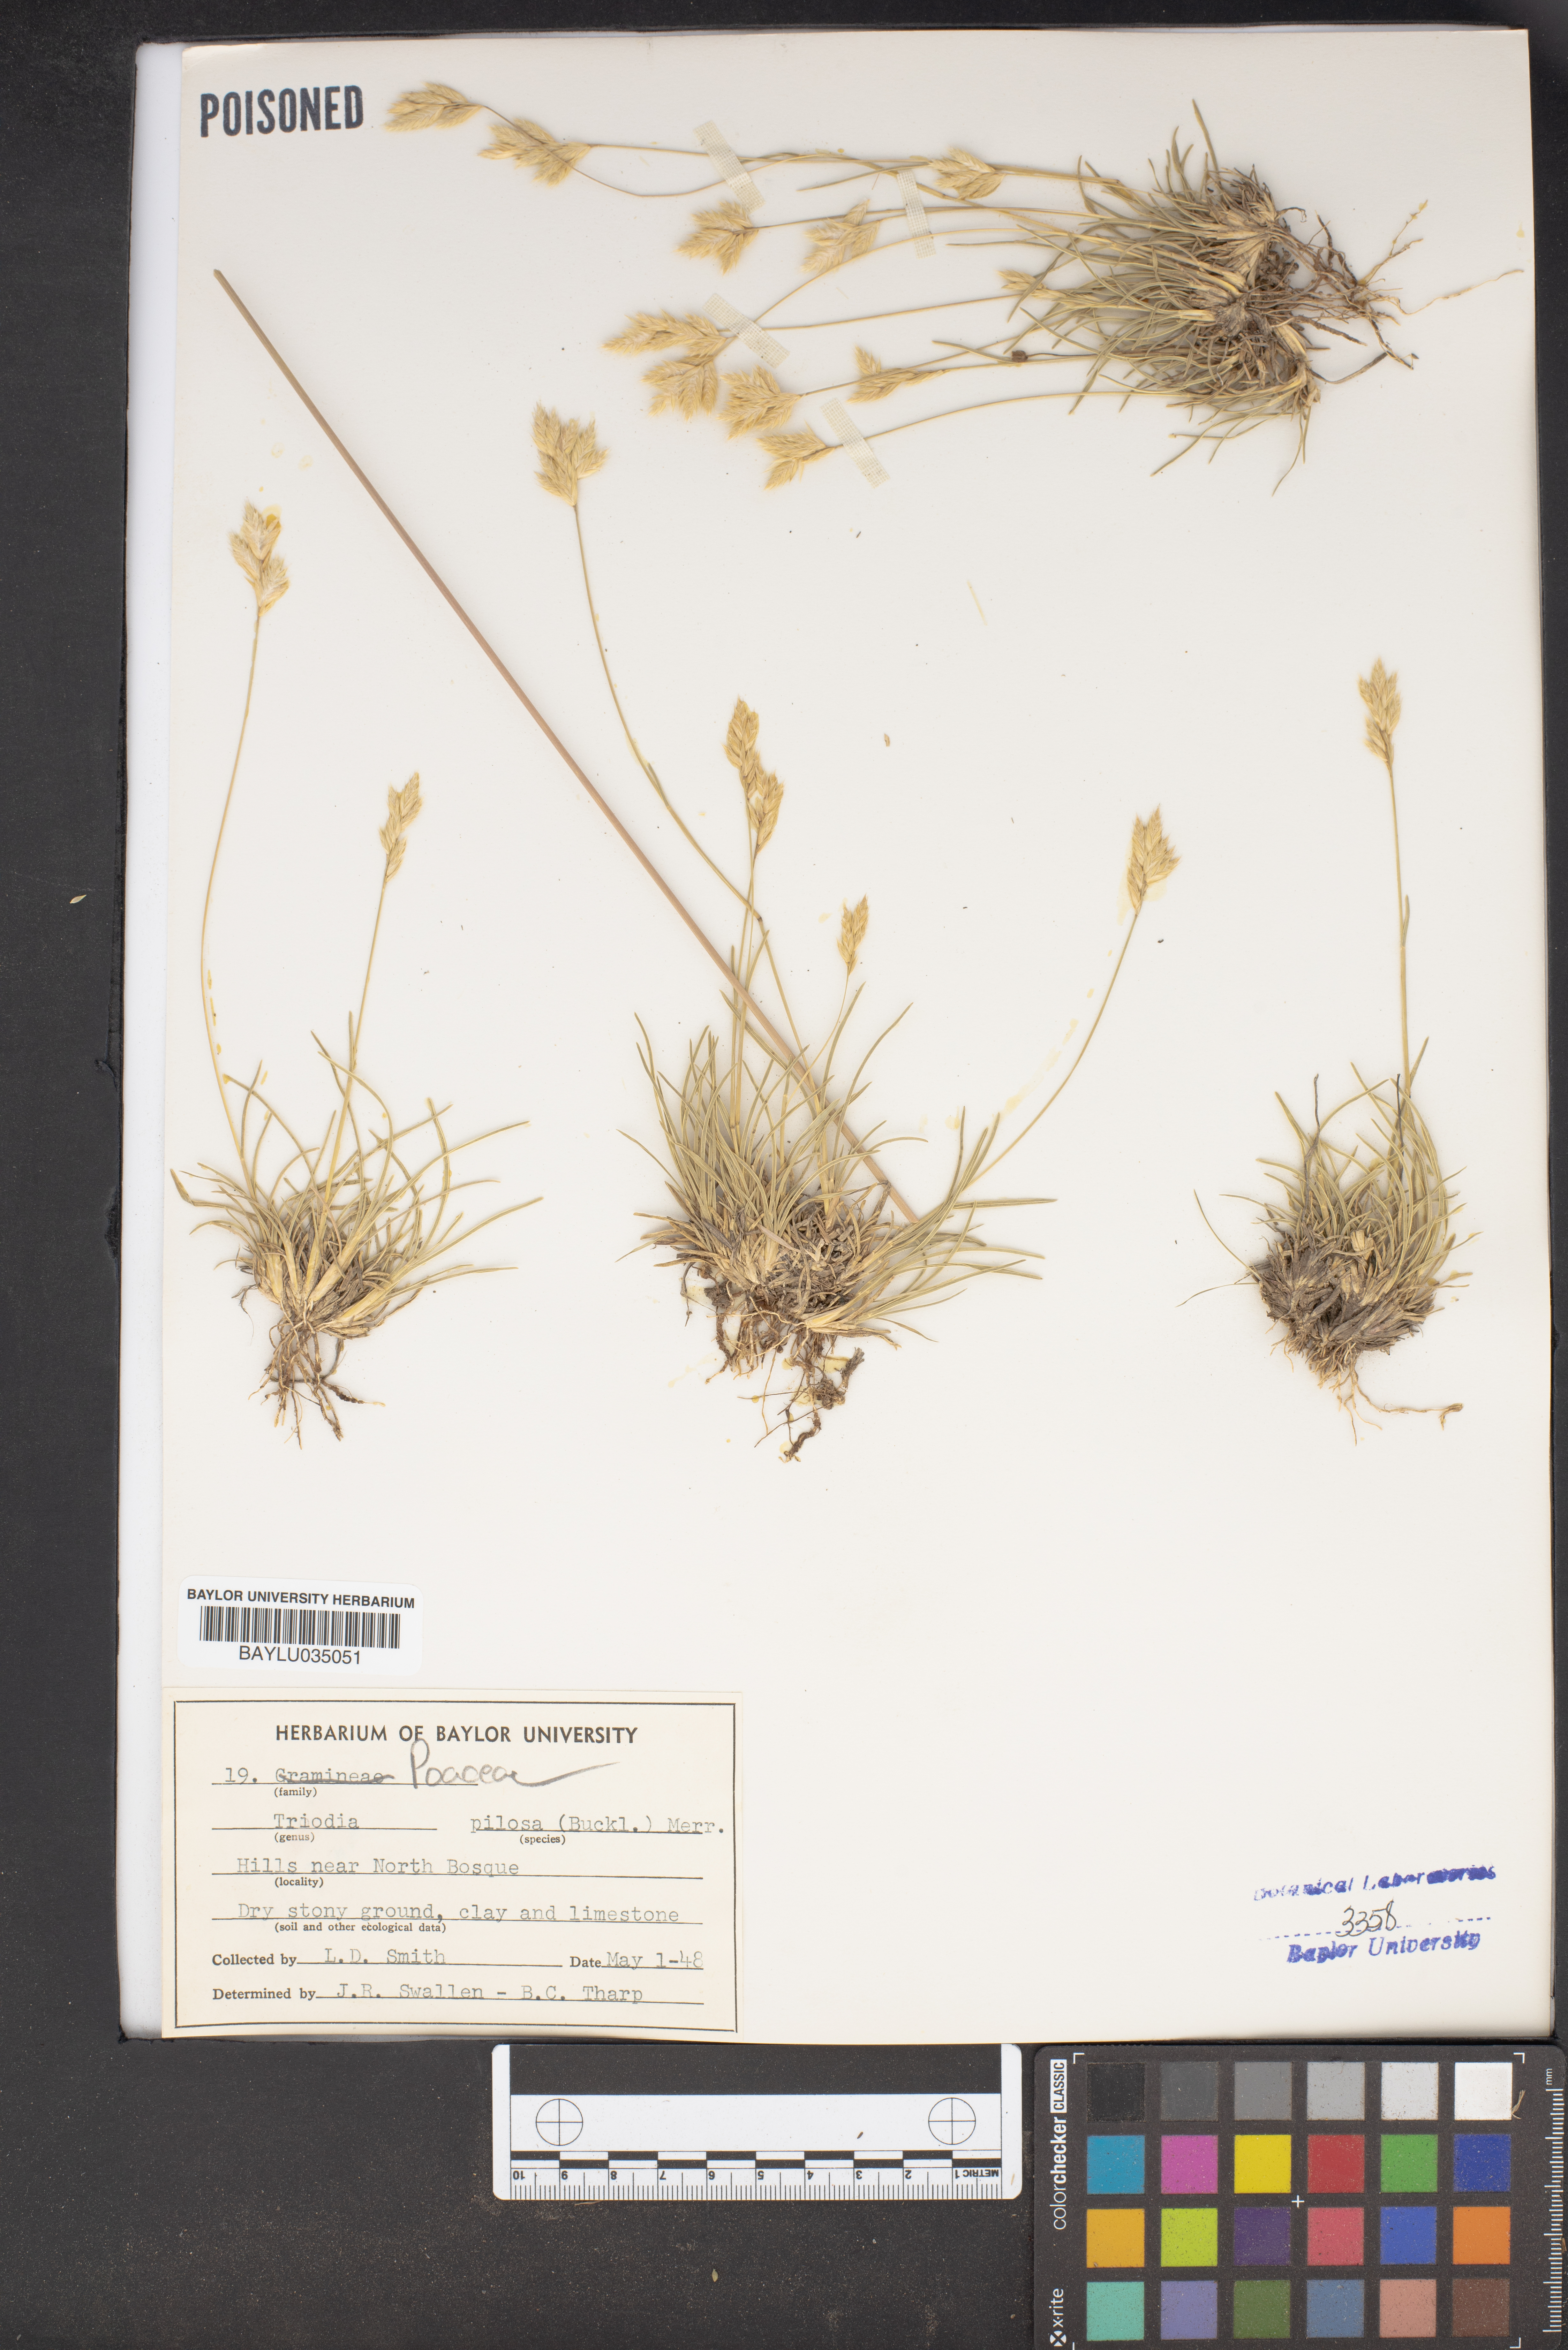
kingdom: Plantae
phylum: Tracheophyta
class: Liliopsida
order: Poales
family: Poaceae
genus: Triodia
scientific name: Triodia pilosa
